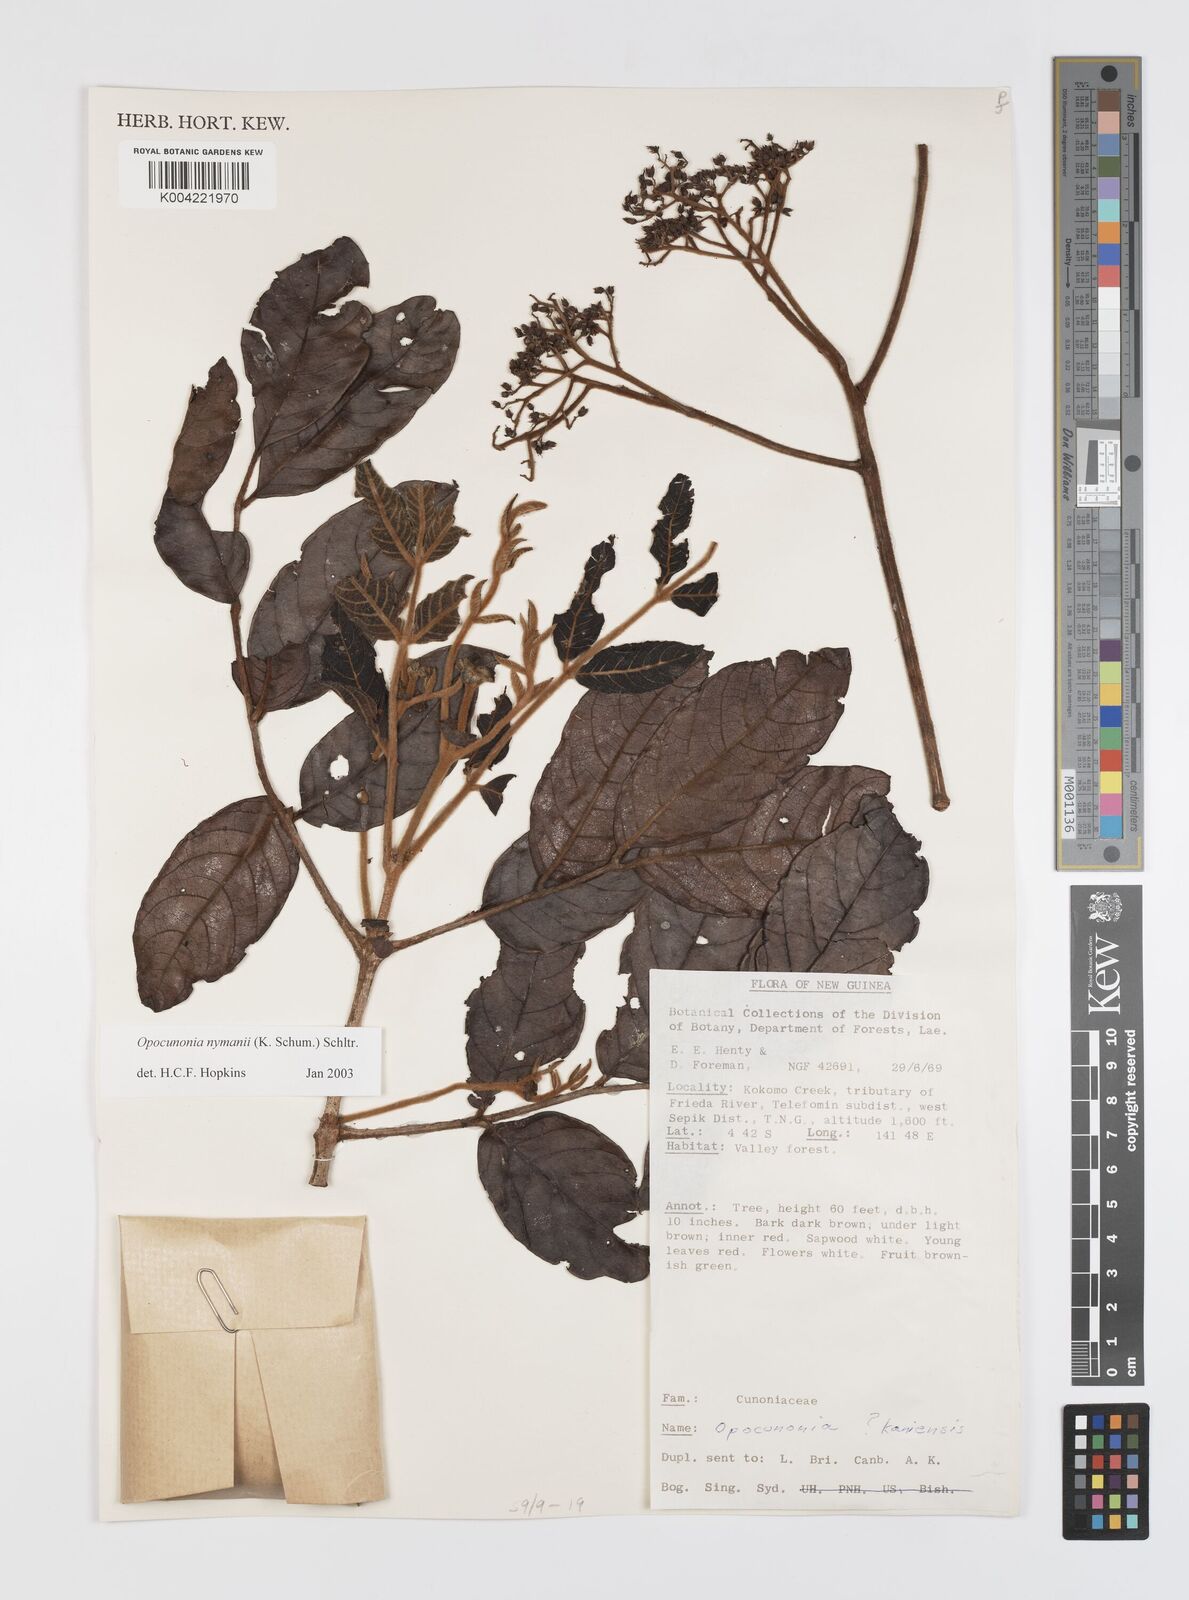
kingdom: Plantae
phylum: Tracheophyta
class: Magnoliopsida
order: Oxalidales
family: Cunoniaceae
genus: Opocunonia
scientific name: Opocunonia nymanii
